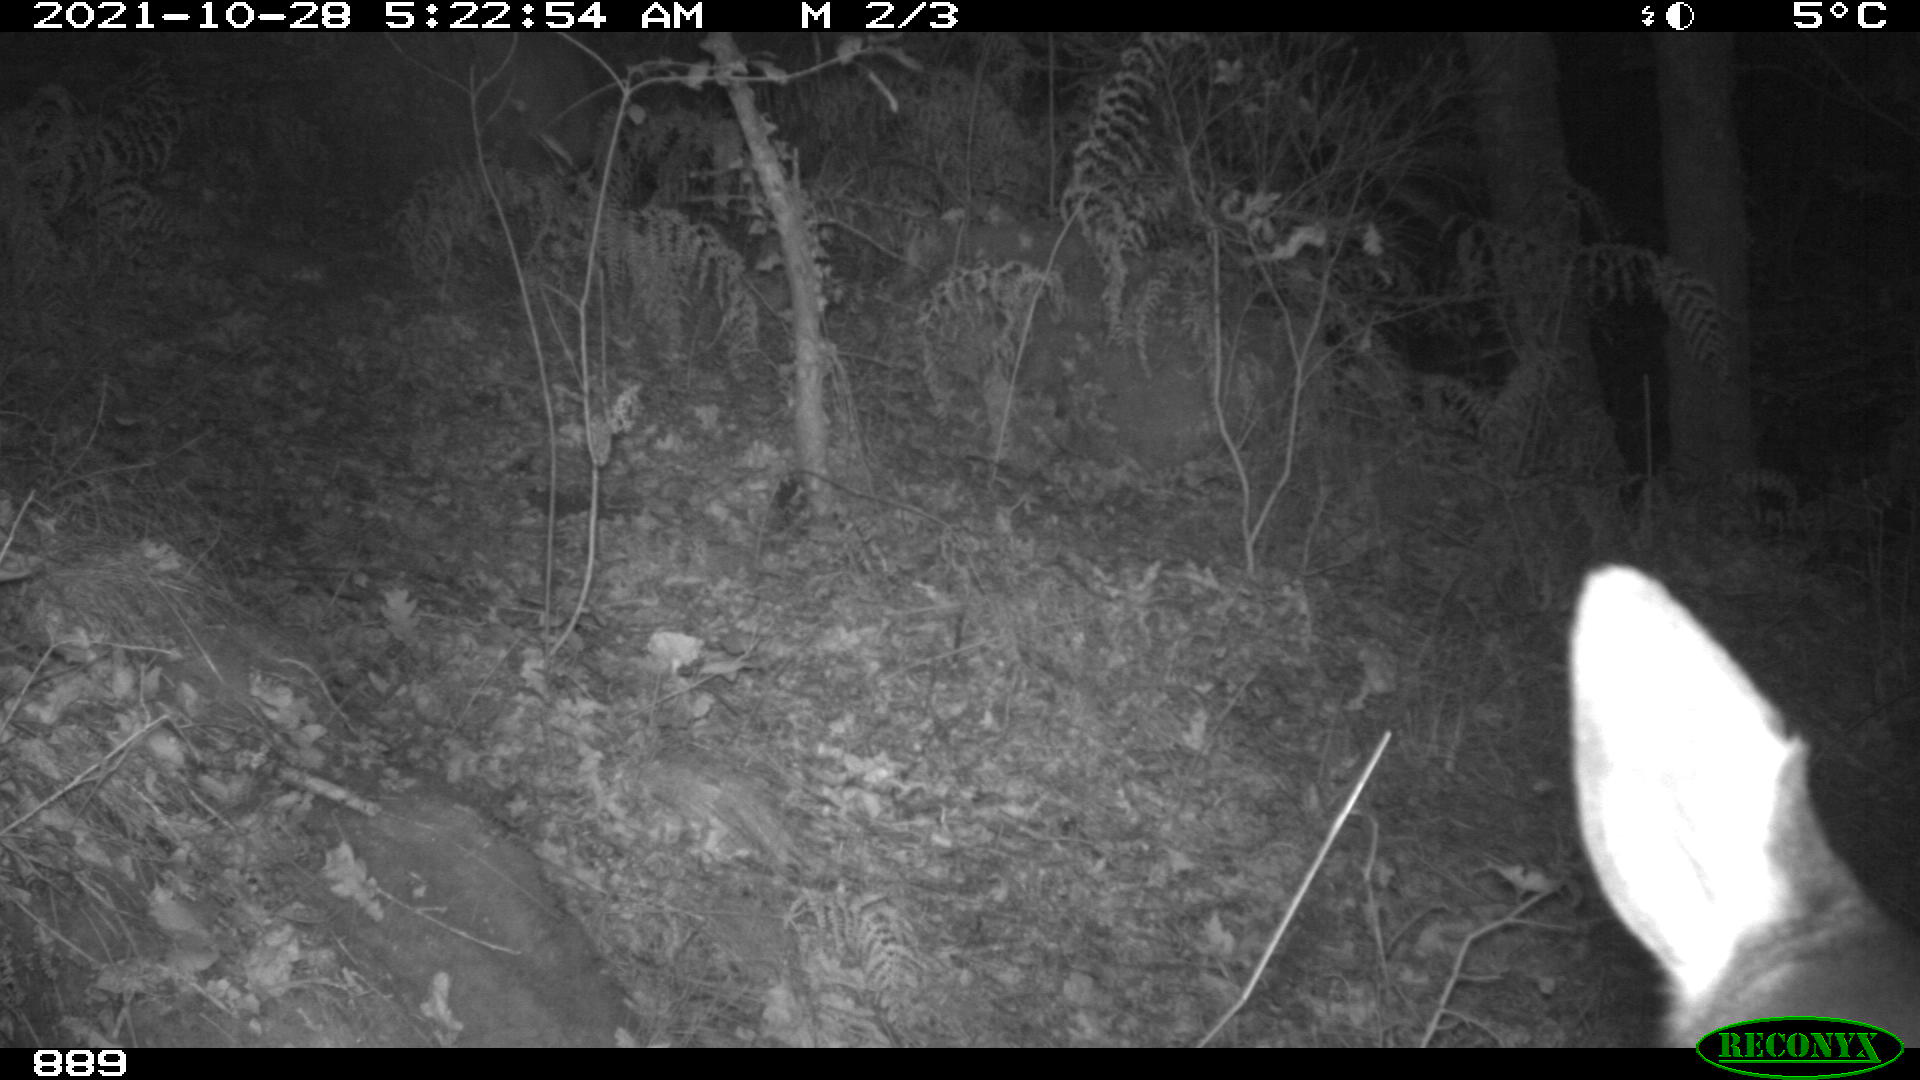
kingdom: Animalia
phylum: Chordata
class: Mammalia
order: Artiodactyla
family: Cervidae
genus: Capreolus
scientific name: Capreolus capreolus
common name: Western roe deer
